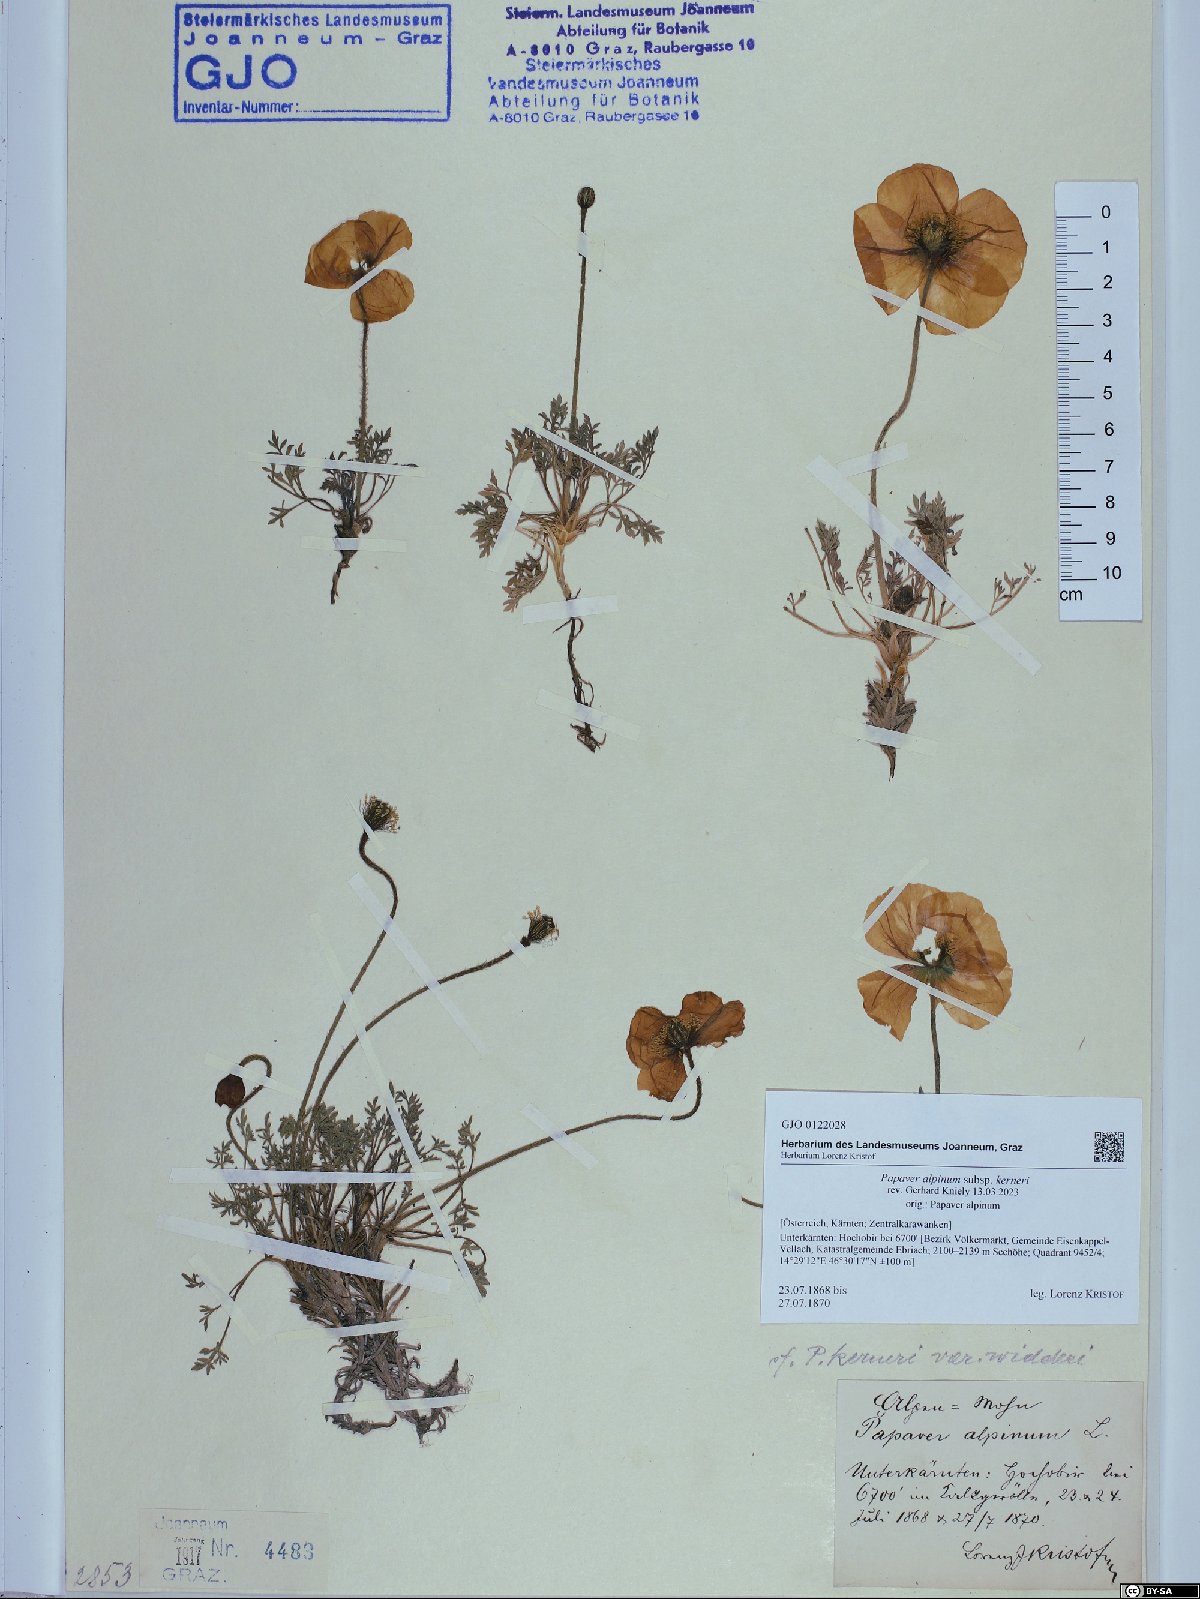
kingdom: Plantae
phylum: Tracheophyta
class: Magnoliopsida
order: Ranunculales
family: Papaveraceae
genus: Papaver
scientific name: Papaver alpinum
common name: Austrian poppy
